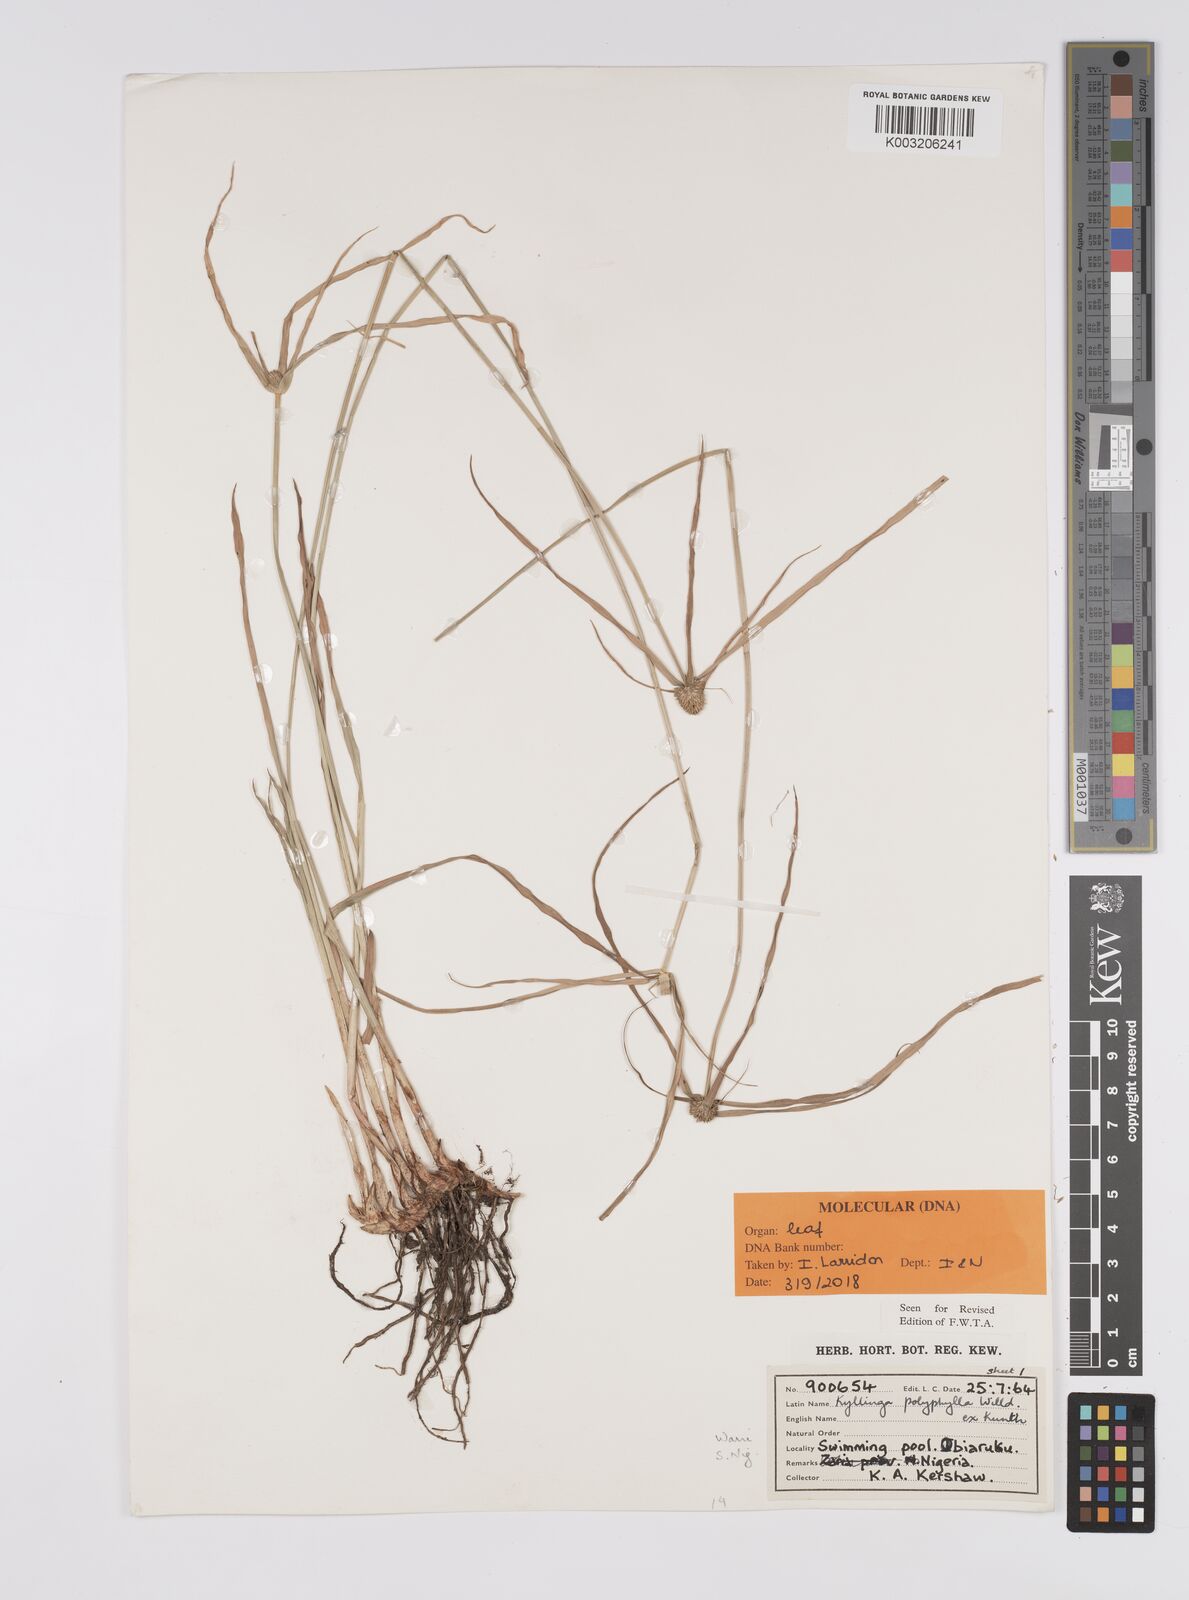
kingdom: Plantae
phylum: Tracheophyta
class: Liliopsida
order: Poales
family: Cyperaceae
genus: Cyperus
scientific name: Cyperus
